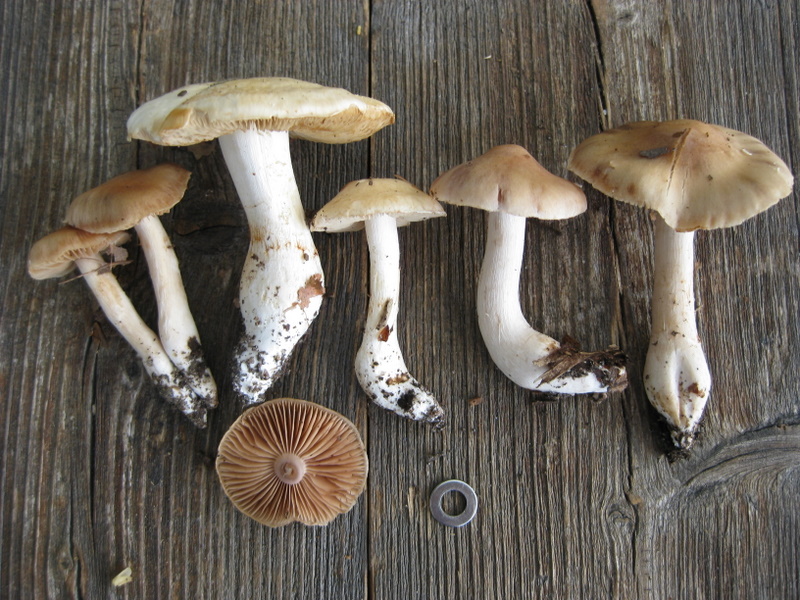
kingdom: Fungi
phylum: Basidiomycota
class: Agaricomycetes
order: Agaricales
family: Cortinariaceae
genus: Cortinarius
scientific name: Cortinarius turgidus
